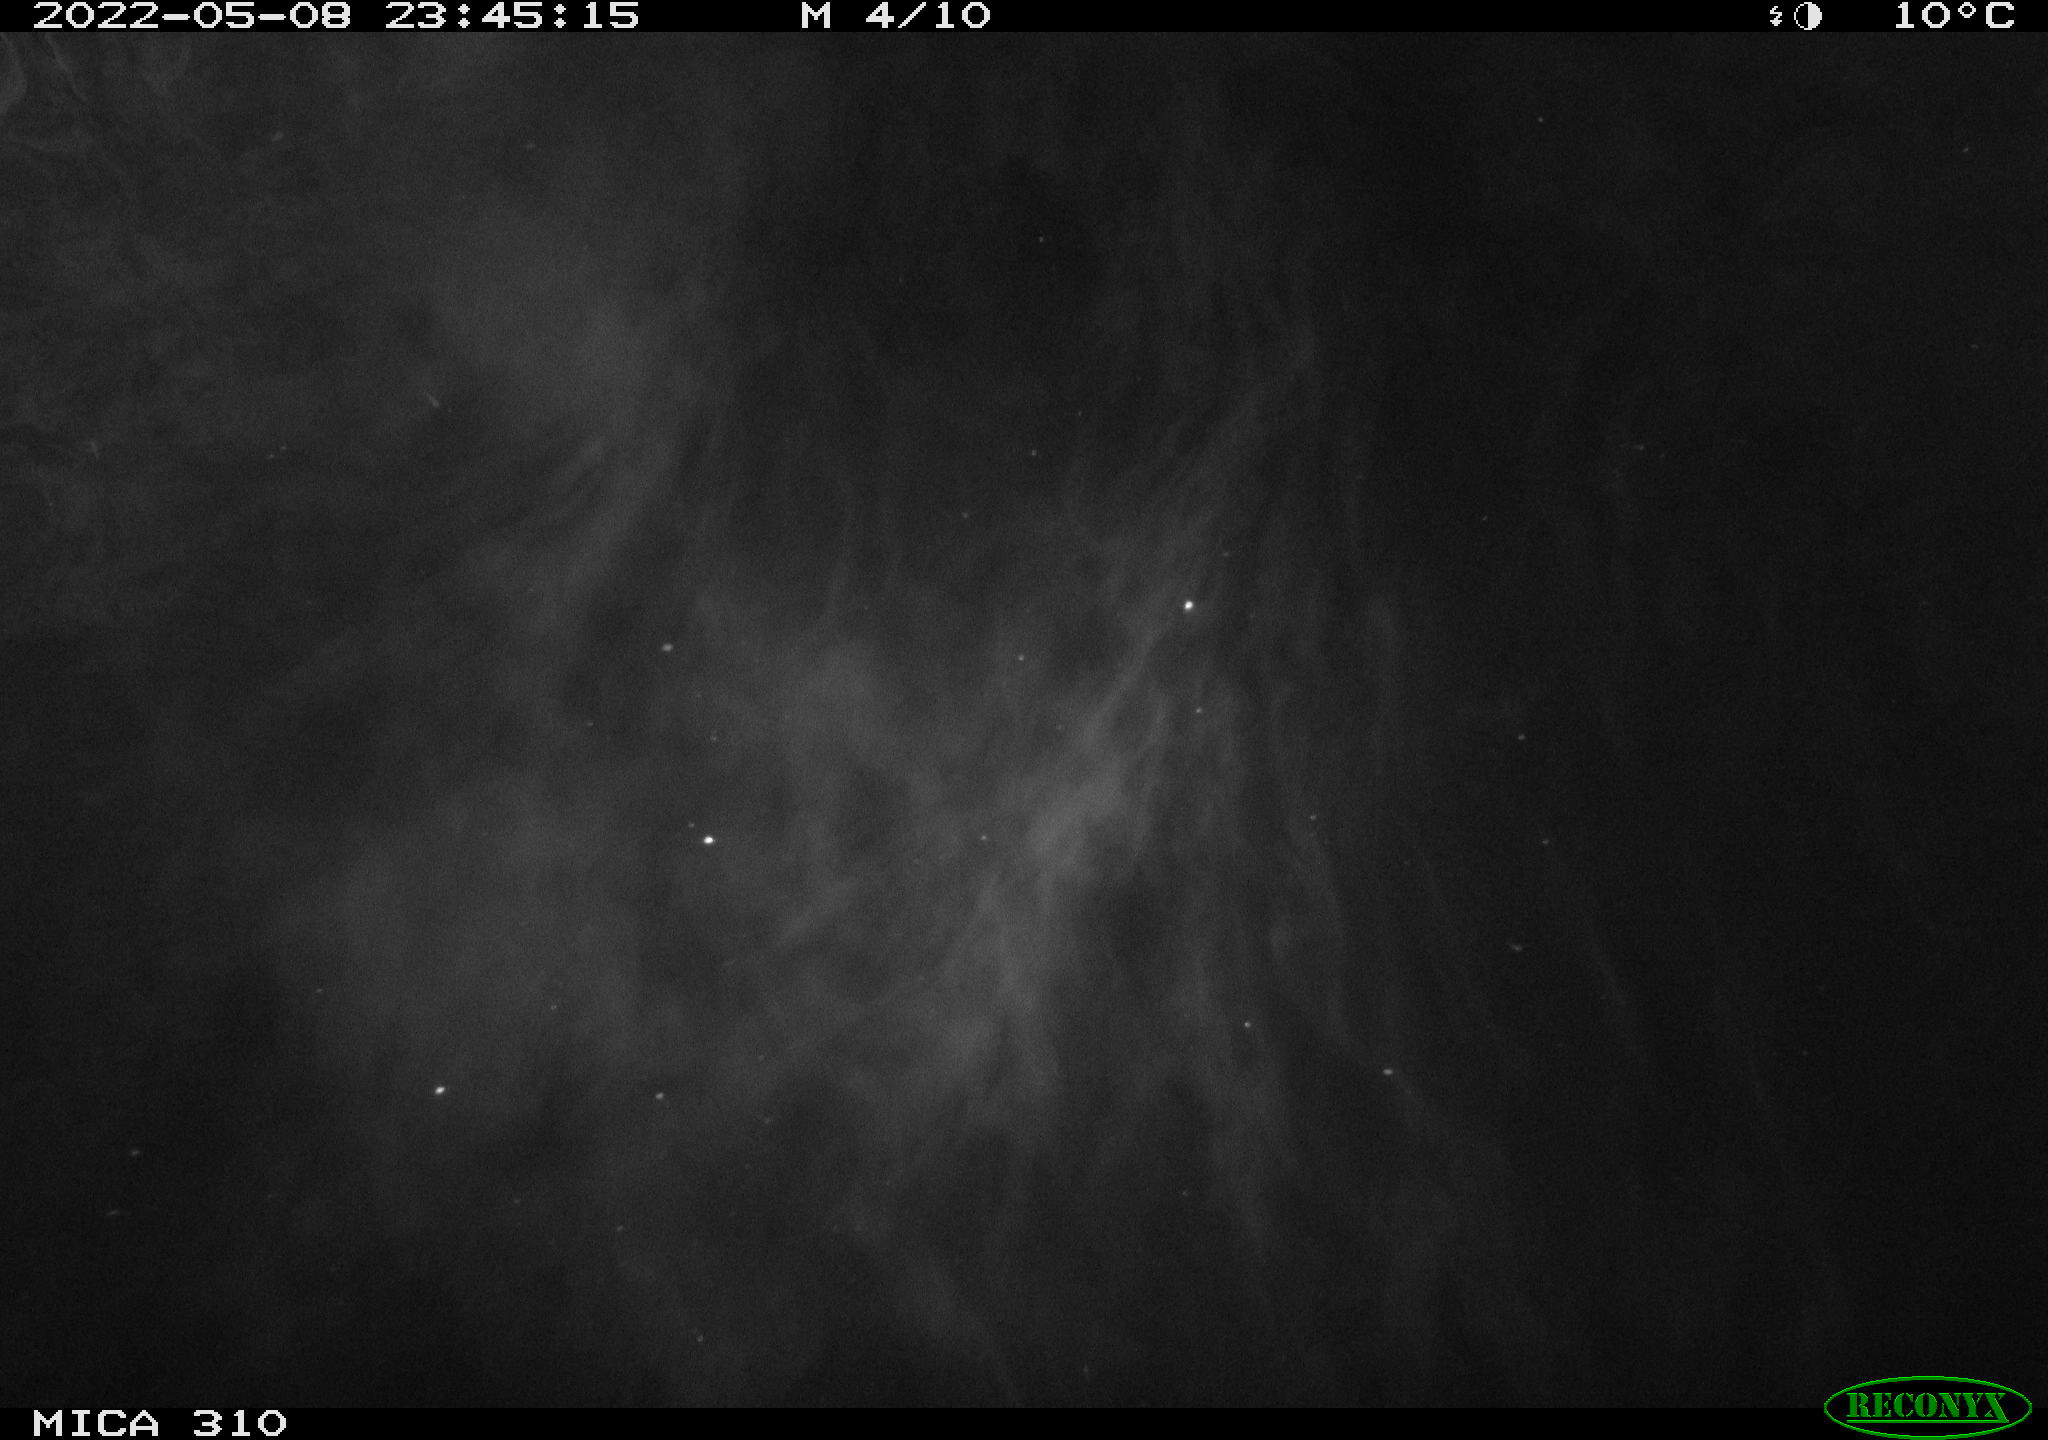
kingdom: Animalia
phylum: Chordata
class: Mammalia
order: Rodentia
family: Cricetidae
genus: Ondatra
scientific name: Ondatra zibethicus
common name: Muskrat
